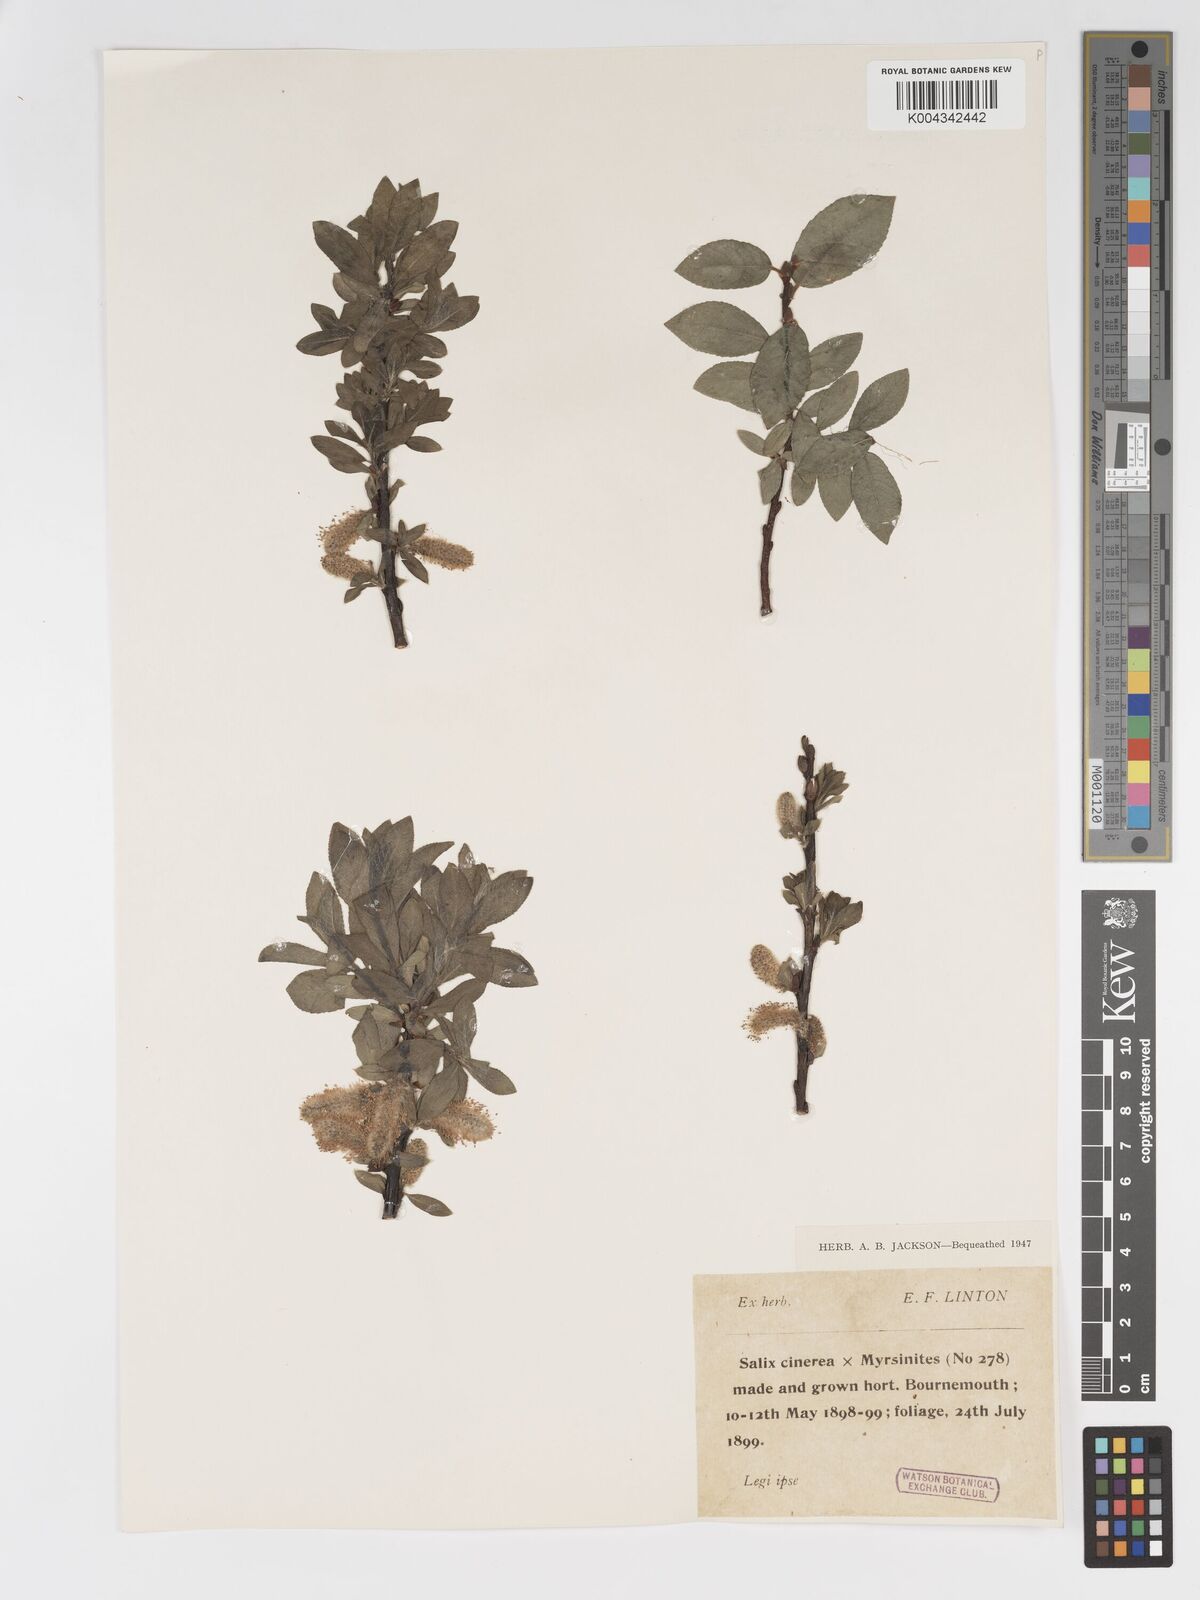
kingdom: Plantae
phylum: Tracheophyta
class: Magnoliopsida
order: Malpighiales
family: Salicaceae
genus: Salix
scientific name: Salix
